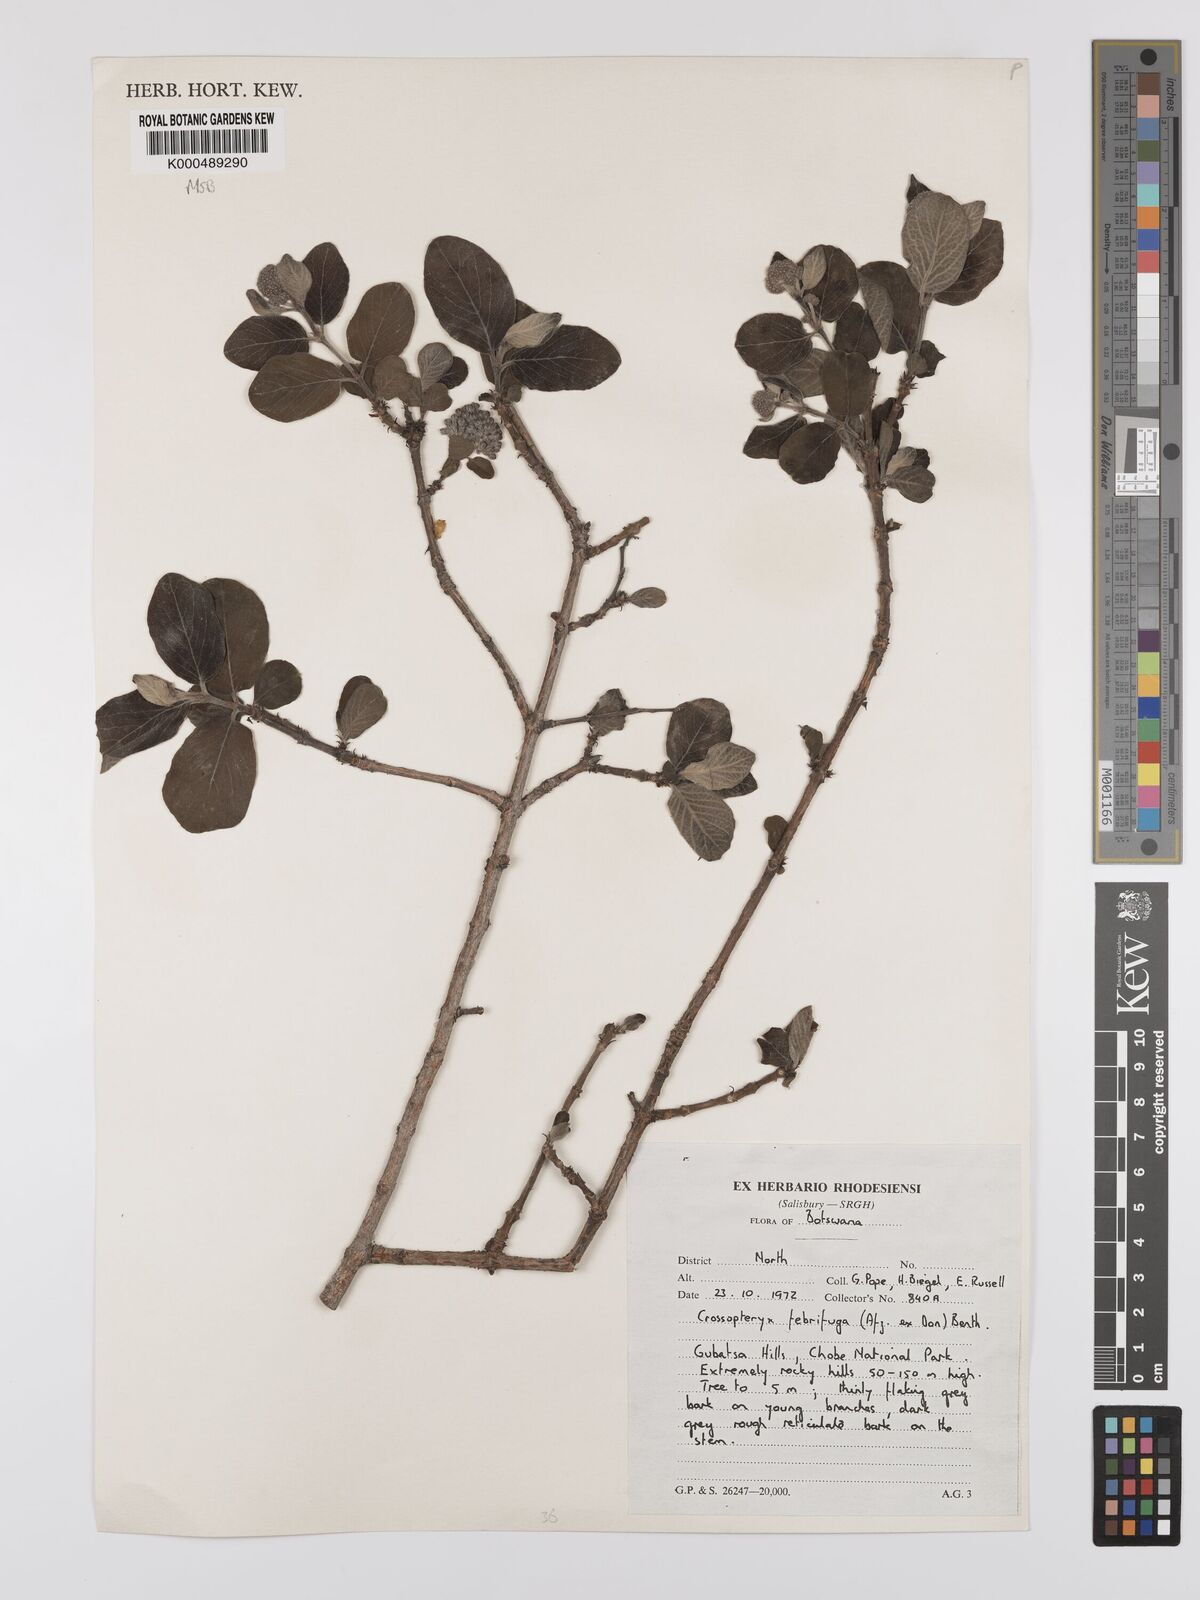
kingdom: Plantae
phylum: Tracheophyta
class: Magnoliopsida
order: Gentianales
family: Rubiaceae
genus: Crossopteryx
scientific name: Crossopteryx febrifuga
